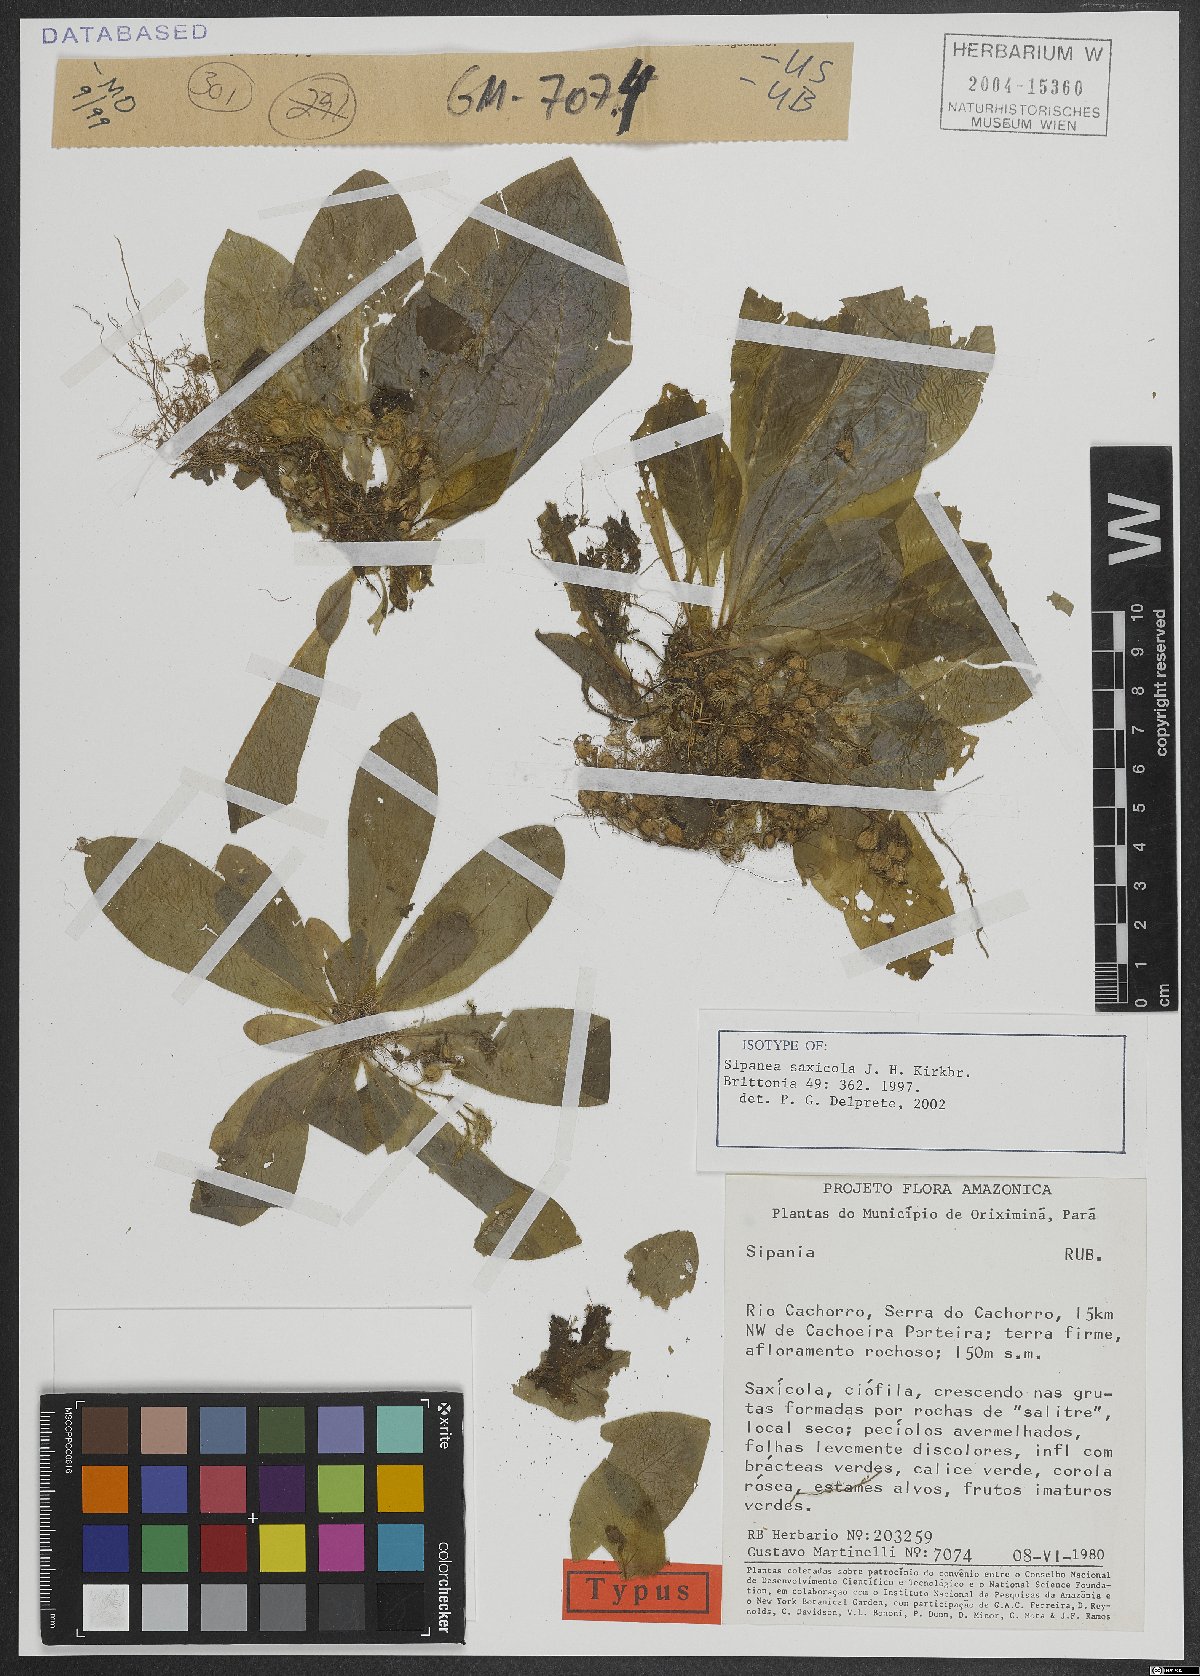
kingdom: Plantae
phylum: Tracheophyta
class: Magnoliopsida
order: Gentianales
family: Rubiaceae
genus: Sipanea
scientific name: Sipanea saxicola
